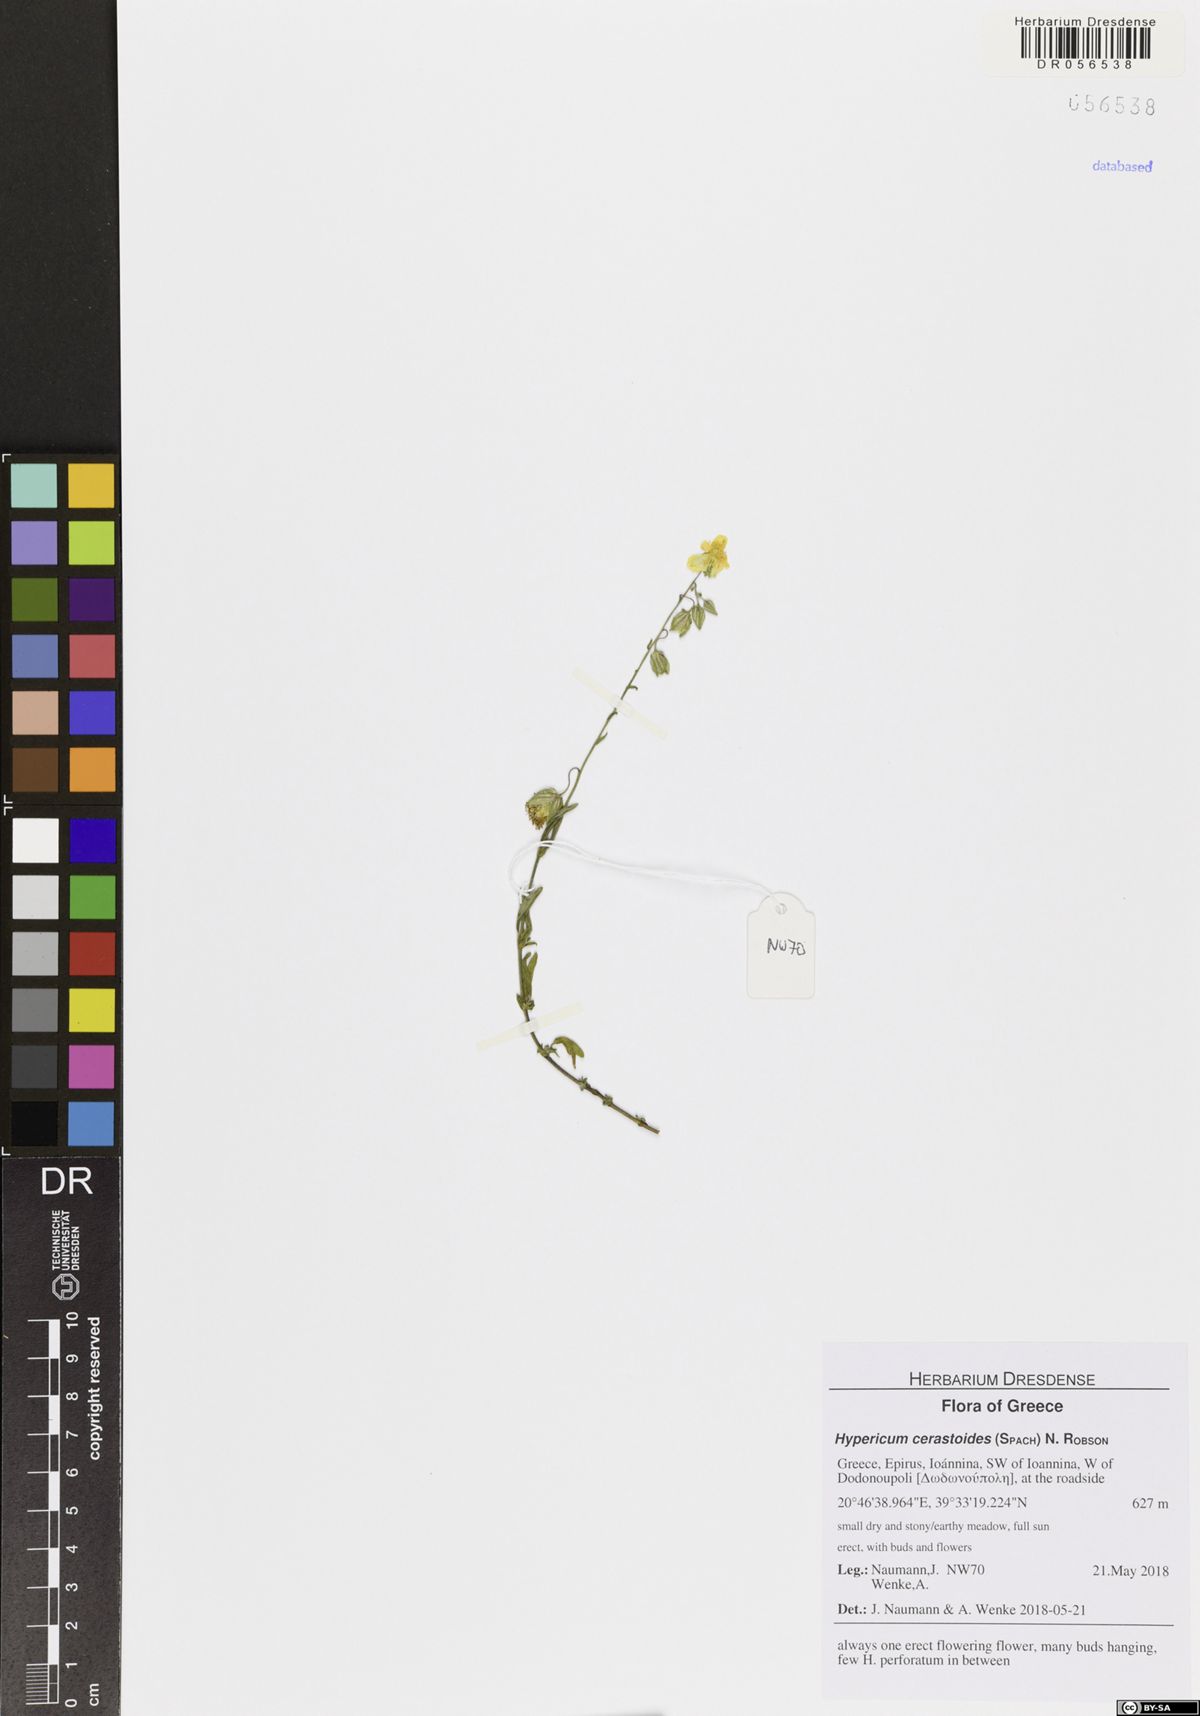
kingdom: Plantae
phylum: Tracheophyta
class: Magnoliopsida
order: Malpighiales
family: Hypericaceae
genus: Hypericum
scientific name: Hypericum cerastoides
